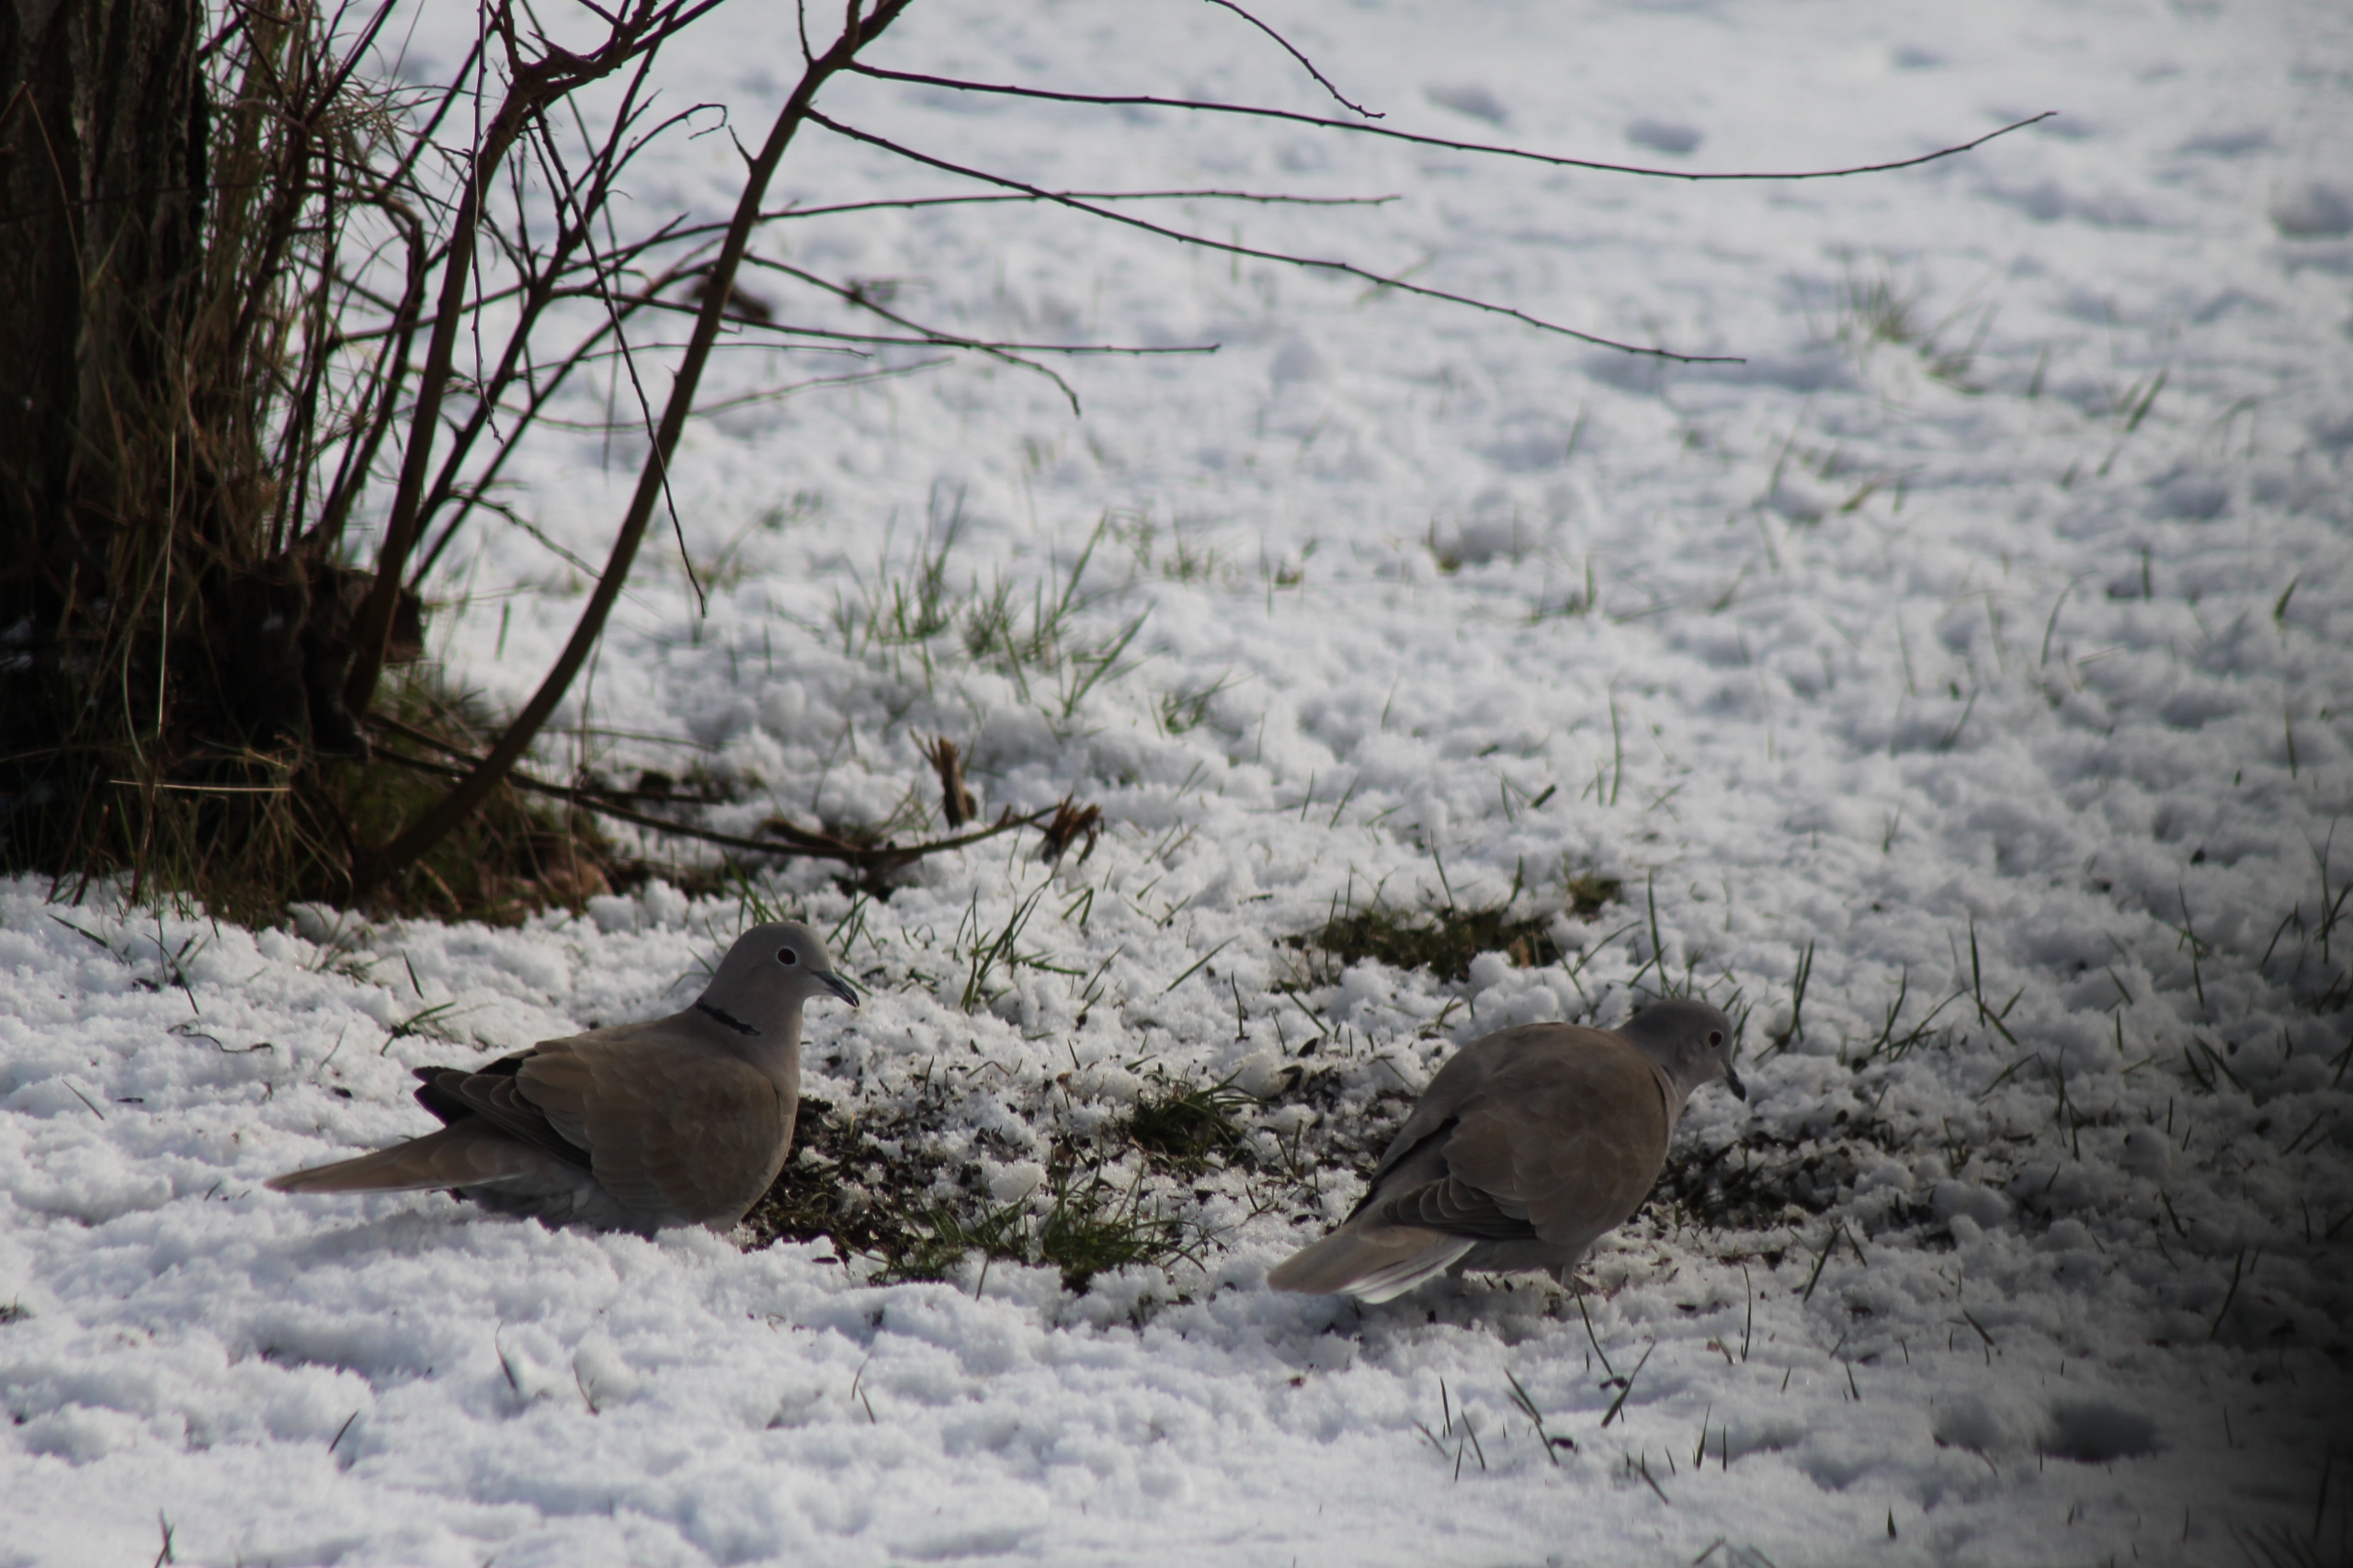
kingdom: Animalia
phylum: Chordata
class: Aves
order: Columbiformes
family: Columbidae
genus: Streptopelia
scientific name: Streptopelia decaocto
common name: Tyrkerdue
